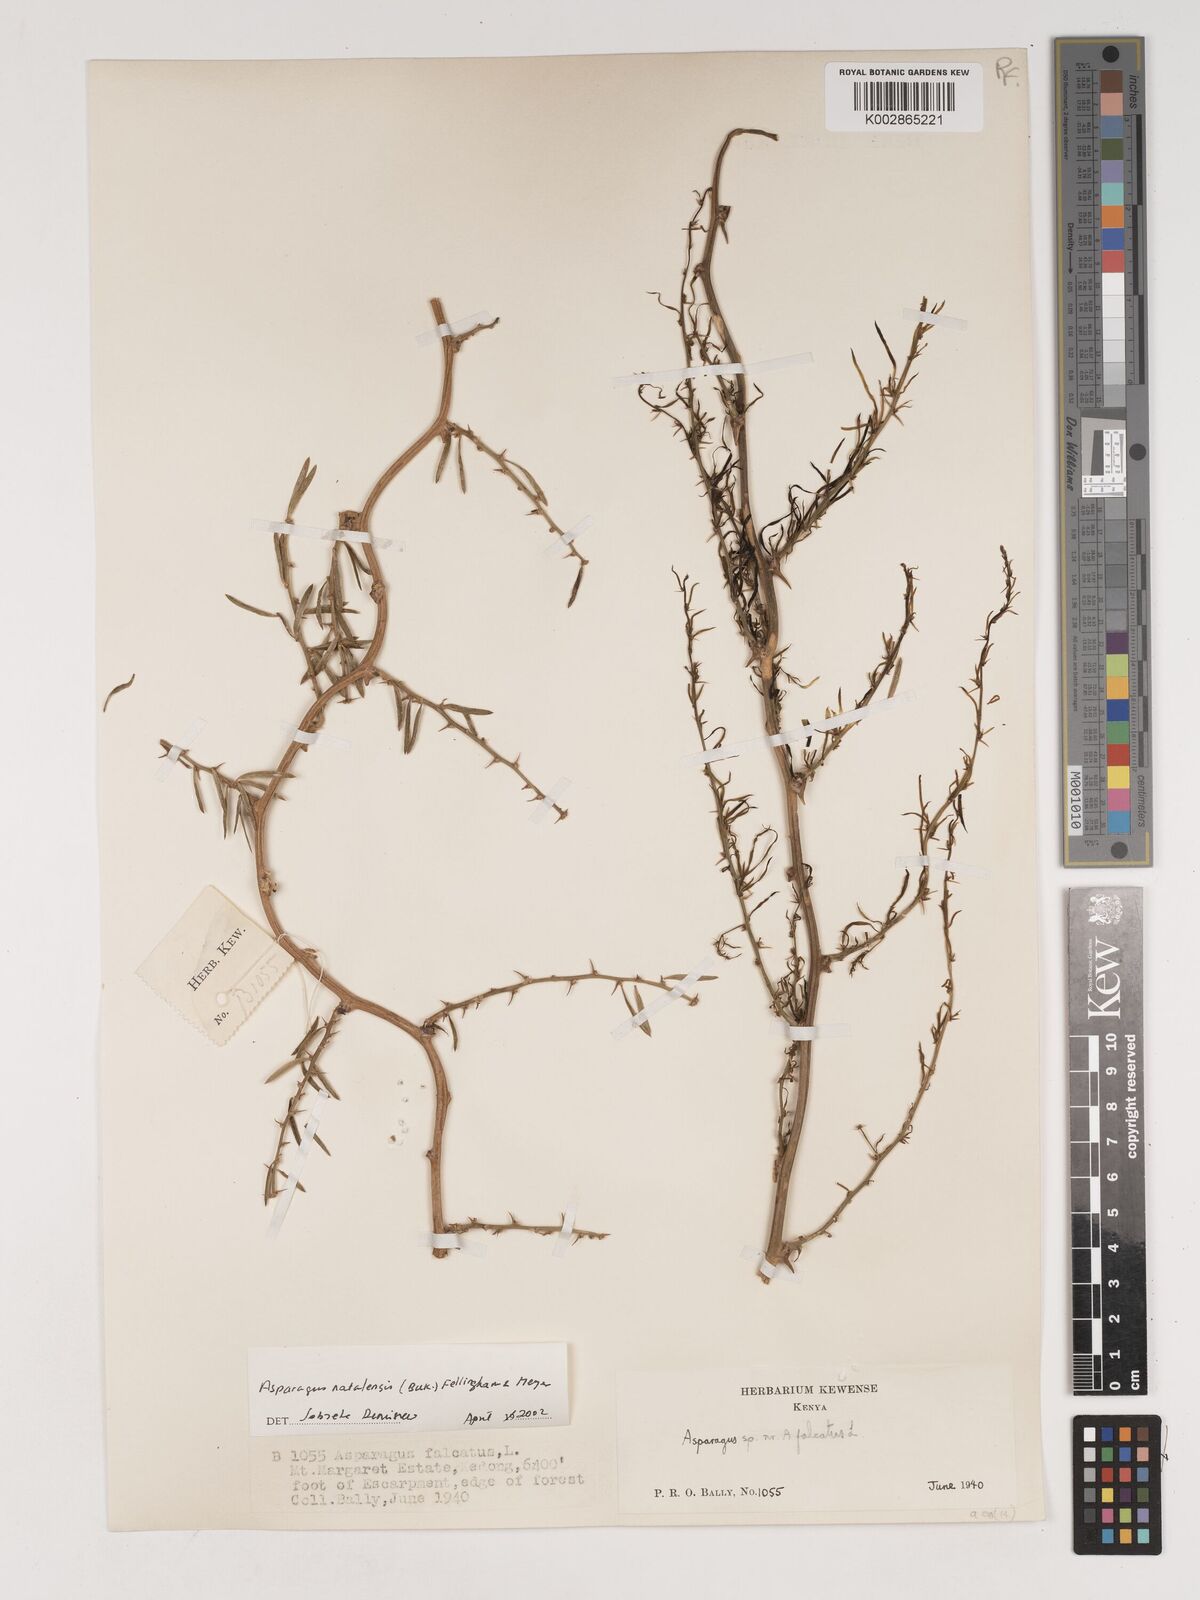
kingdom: Plantae
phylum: Tracheophyta
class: Liliopsida
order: Asparagales
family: Asparagaceae
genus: Asparagus
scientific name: Asparagus natalensis
